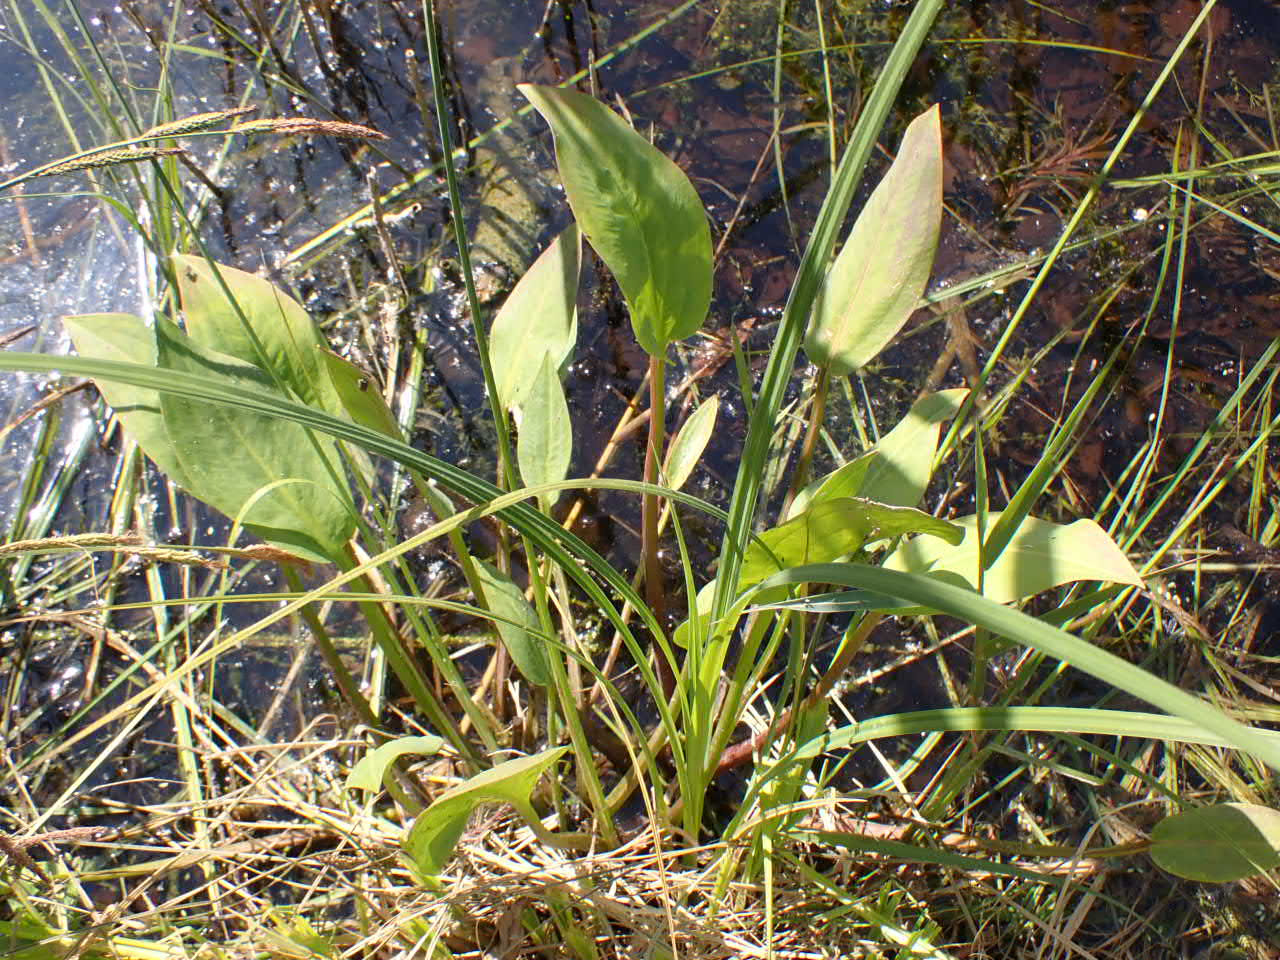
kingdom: Plantae
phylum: Tracheophyta
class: Liliopsida
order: Alismatales
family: Alismataceae
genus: Alisma
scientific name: Alisma plantago-aquatica
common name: Vejbred-skeblad
